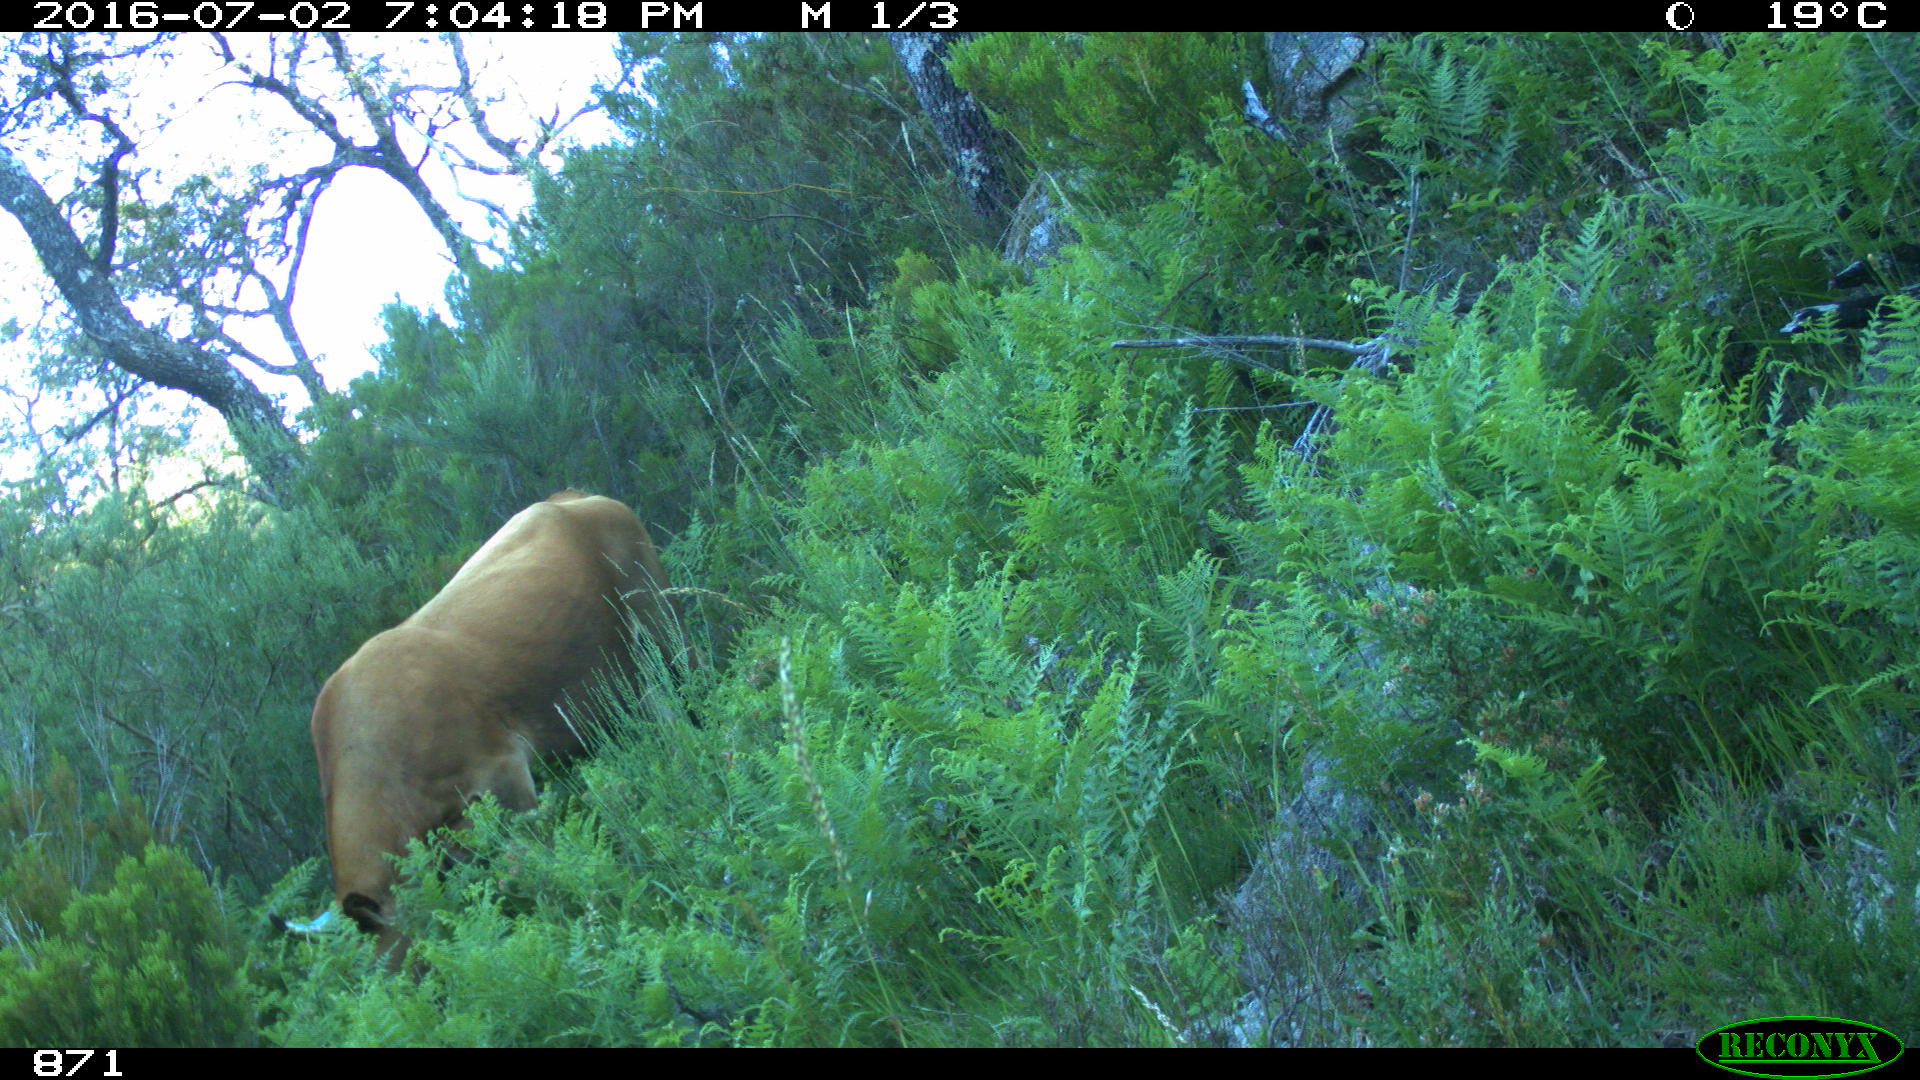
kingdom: Animalia
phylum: Chordata
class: Mammalia
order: Artiodactyla
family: Bovidae
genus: Bos
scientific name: Bos taurus
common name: Domesticated cattle
